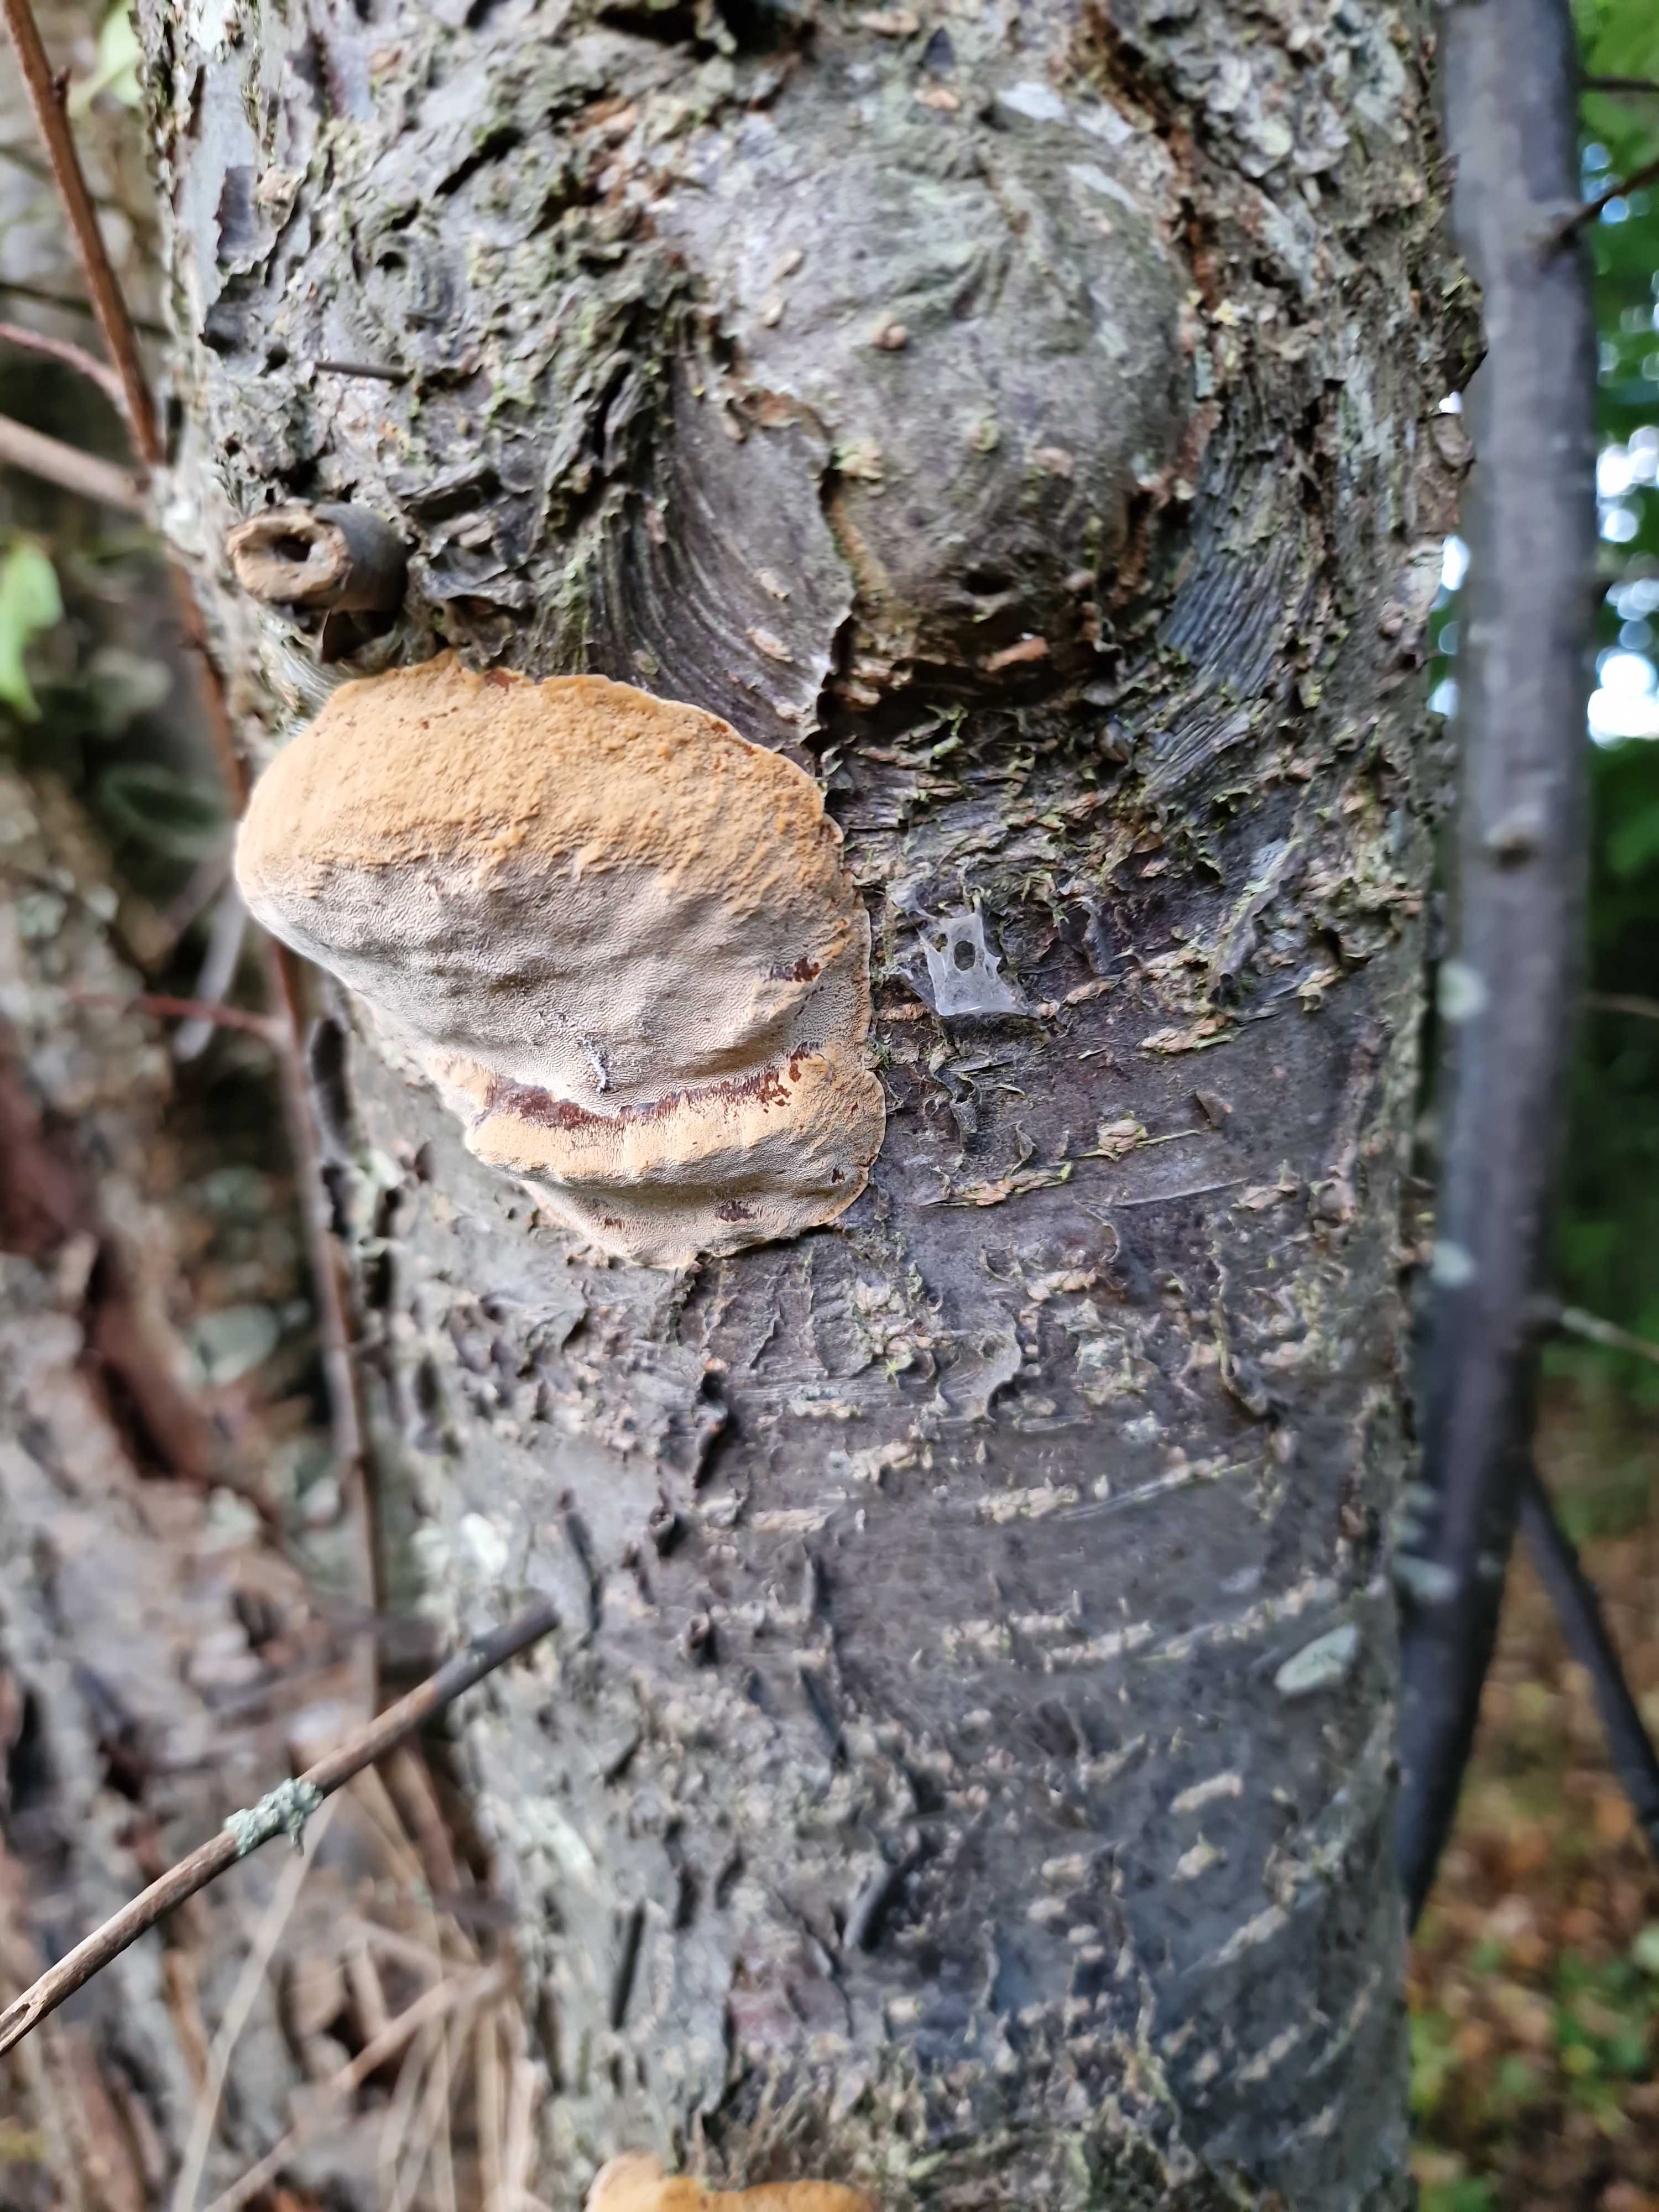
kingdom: Fungi
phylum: Basidiomycota
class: Agaricomycetes
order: Hymenochaetales
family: Hymenochaetaceae
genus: Phellinus
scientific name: Phellinus pomaceus
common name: blomme-ildporesvamp
